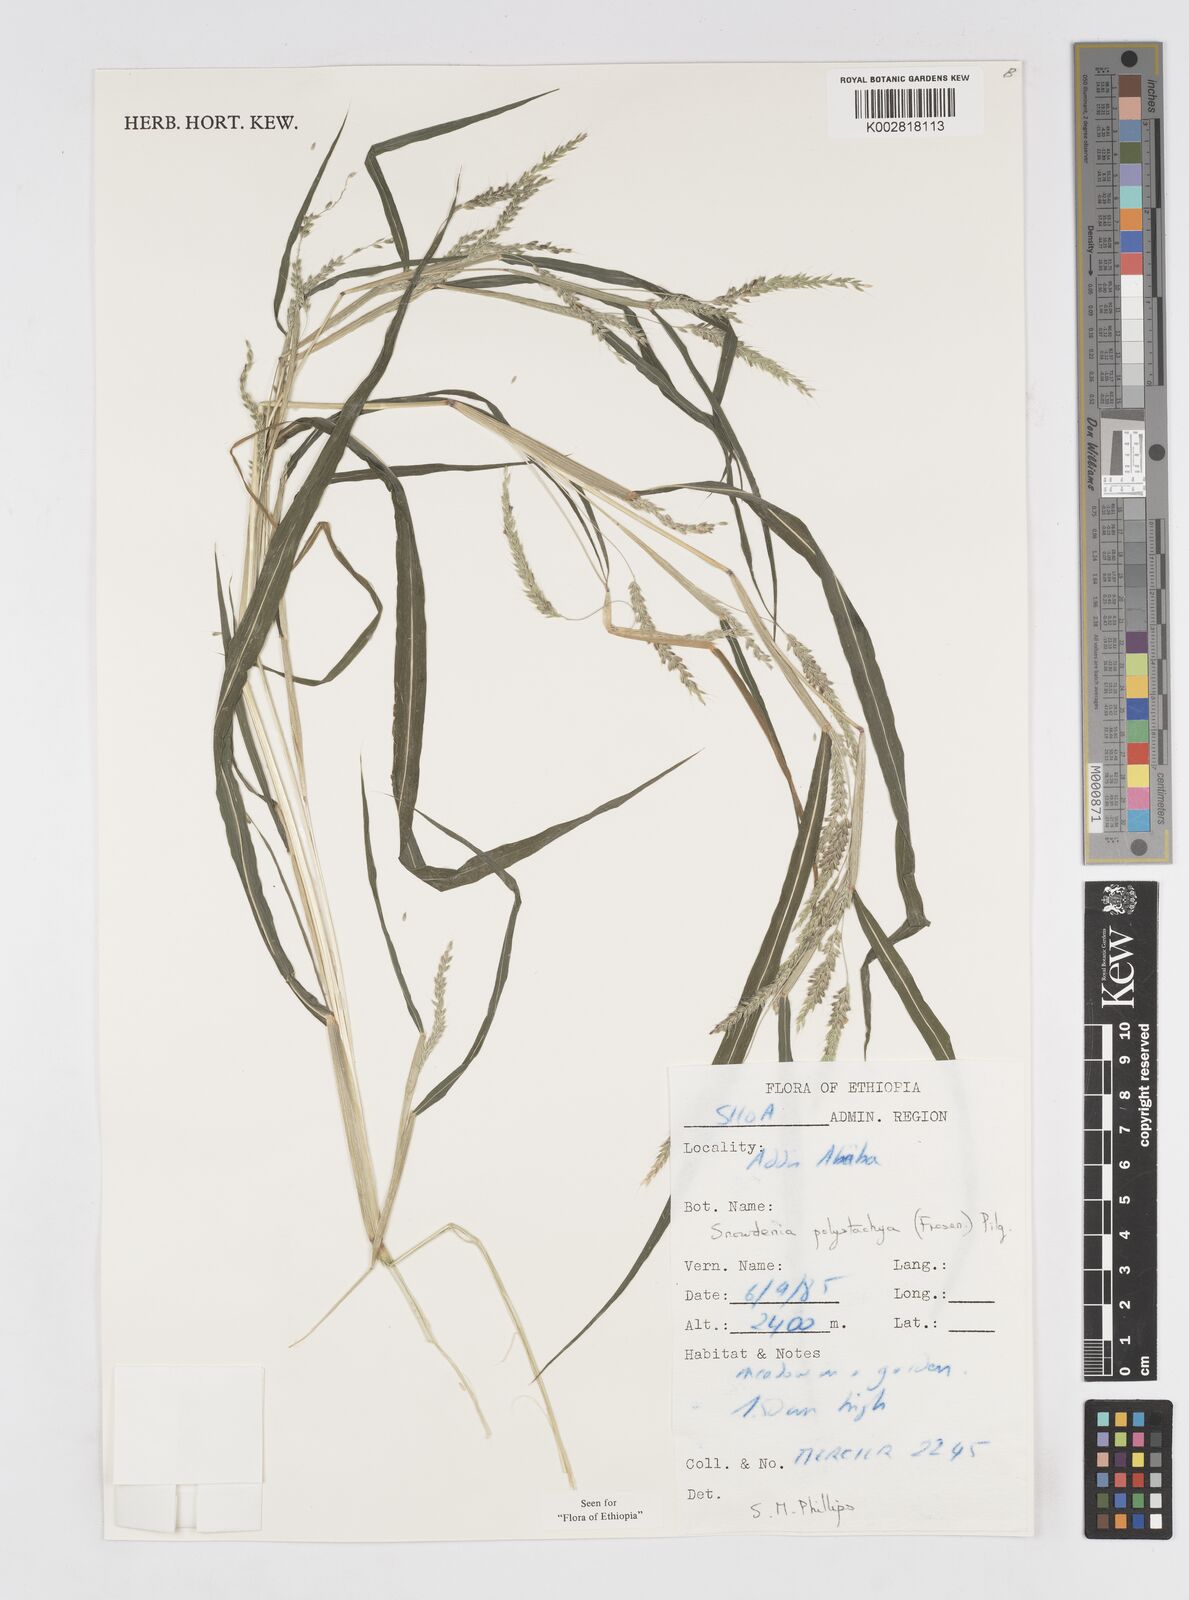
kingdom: Plantae
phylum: Tracheophyta
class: Liliopsida
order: Poales
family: Poaceae
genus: Snowdenia
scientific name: Snowdenia polystachya
